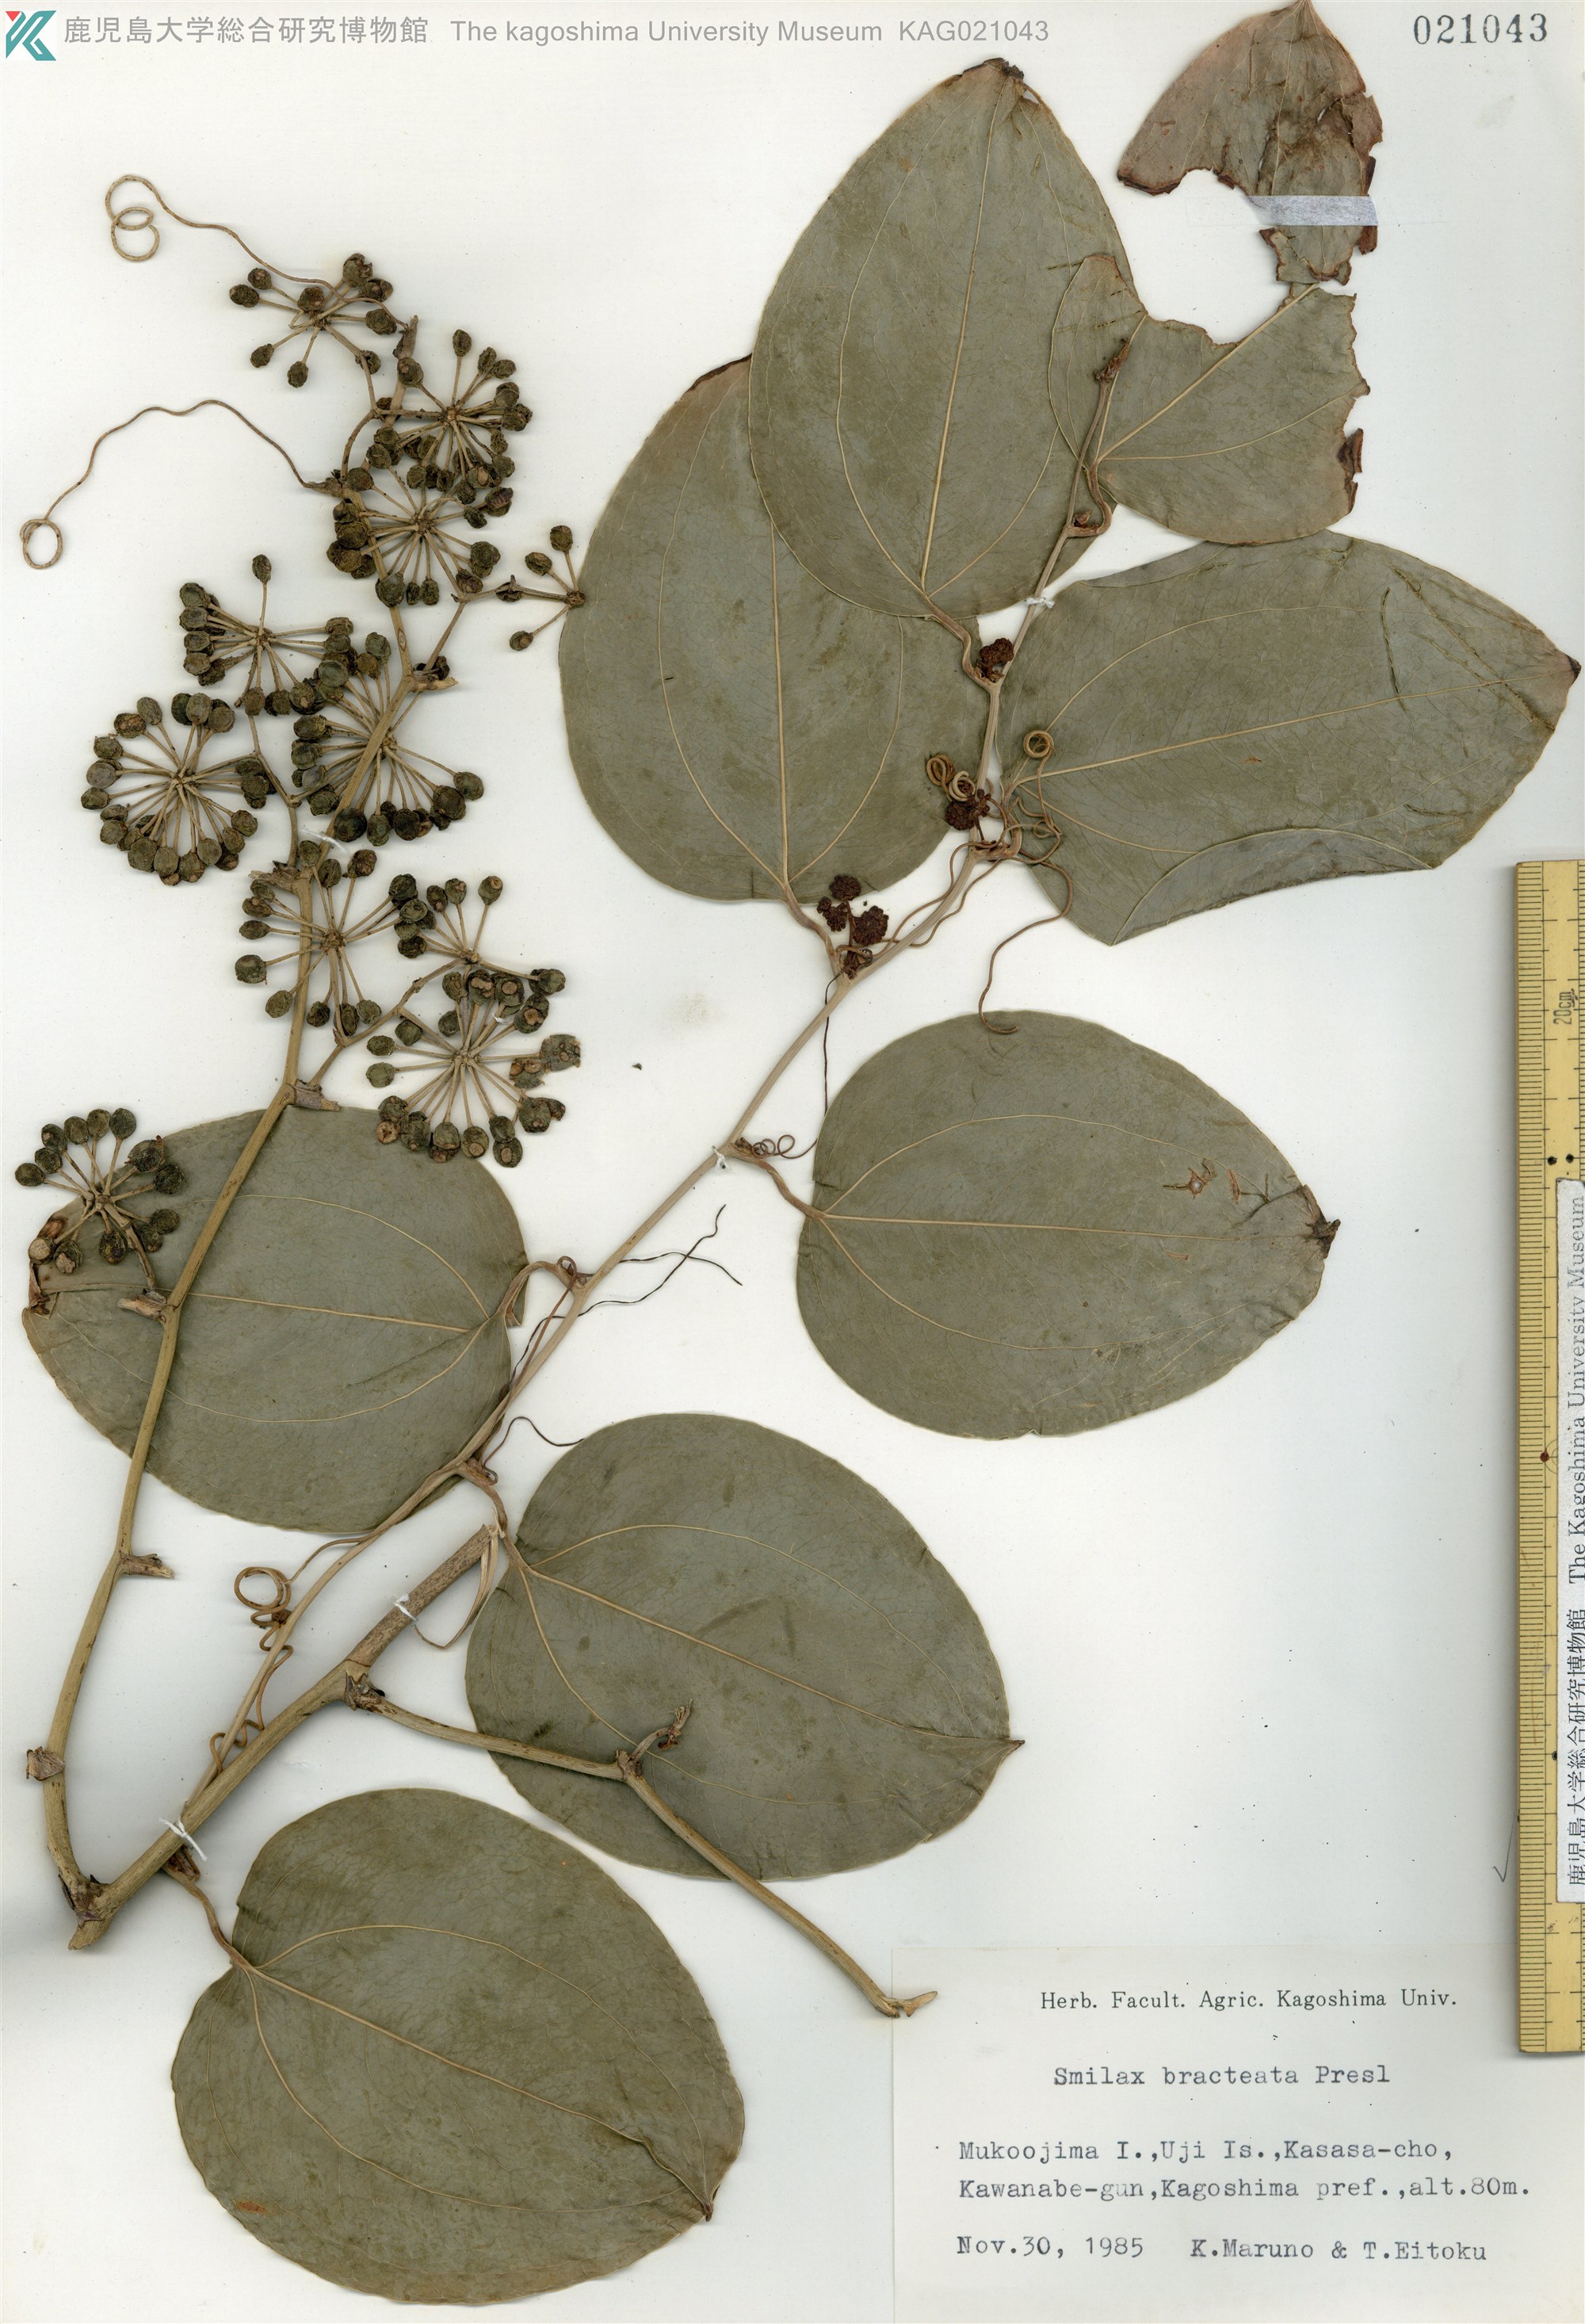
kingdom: Plantae
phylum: Tracheophyta
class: Liliopsida
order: Liliales
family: Smilacaceae
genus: Smilax
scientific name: Smilax bracteata
